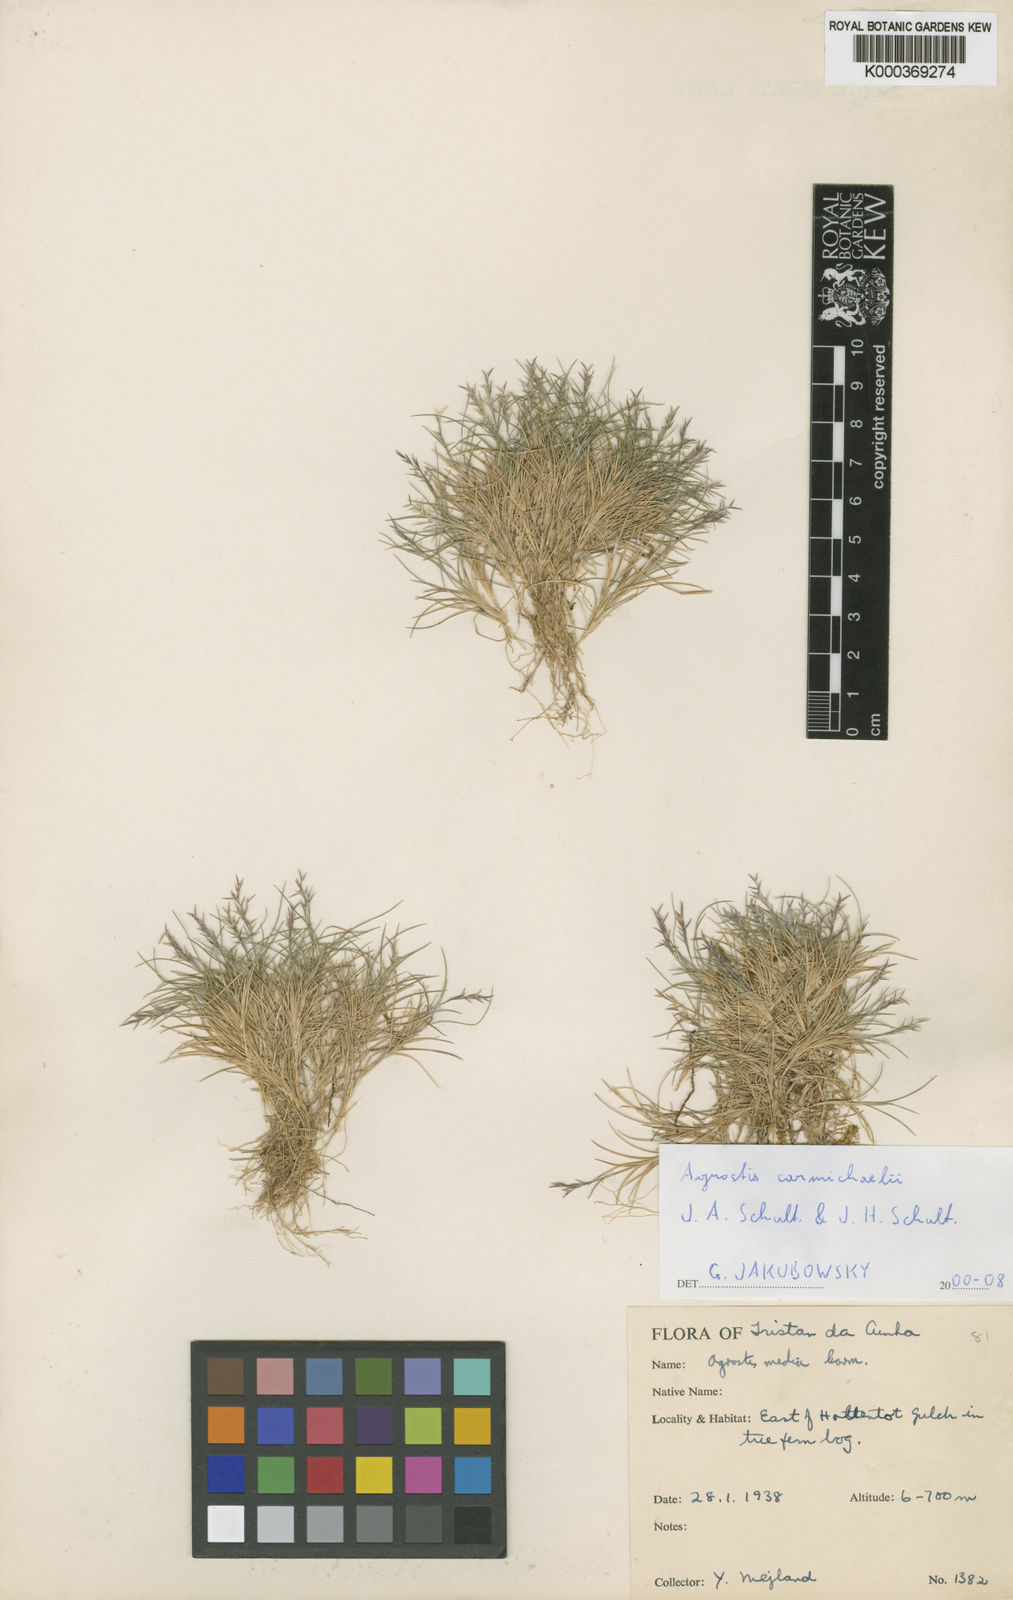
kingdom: Plantae
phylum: Tracheophyta
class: Liliopsida
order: Poales
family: Poaceae
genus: Agrostis
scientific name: Agrostis carmichaelii
